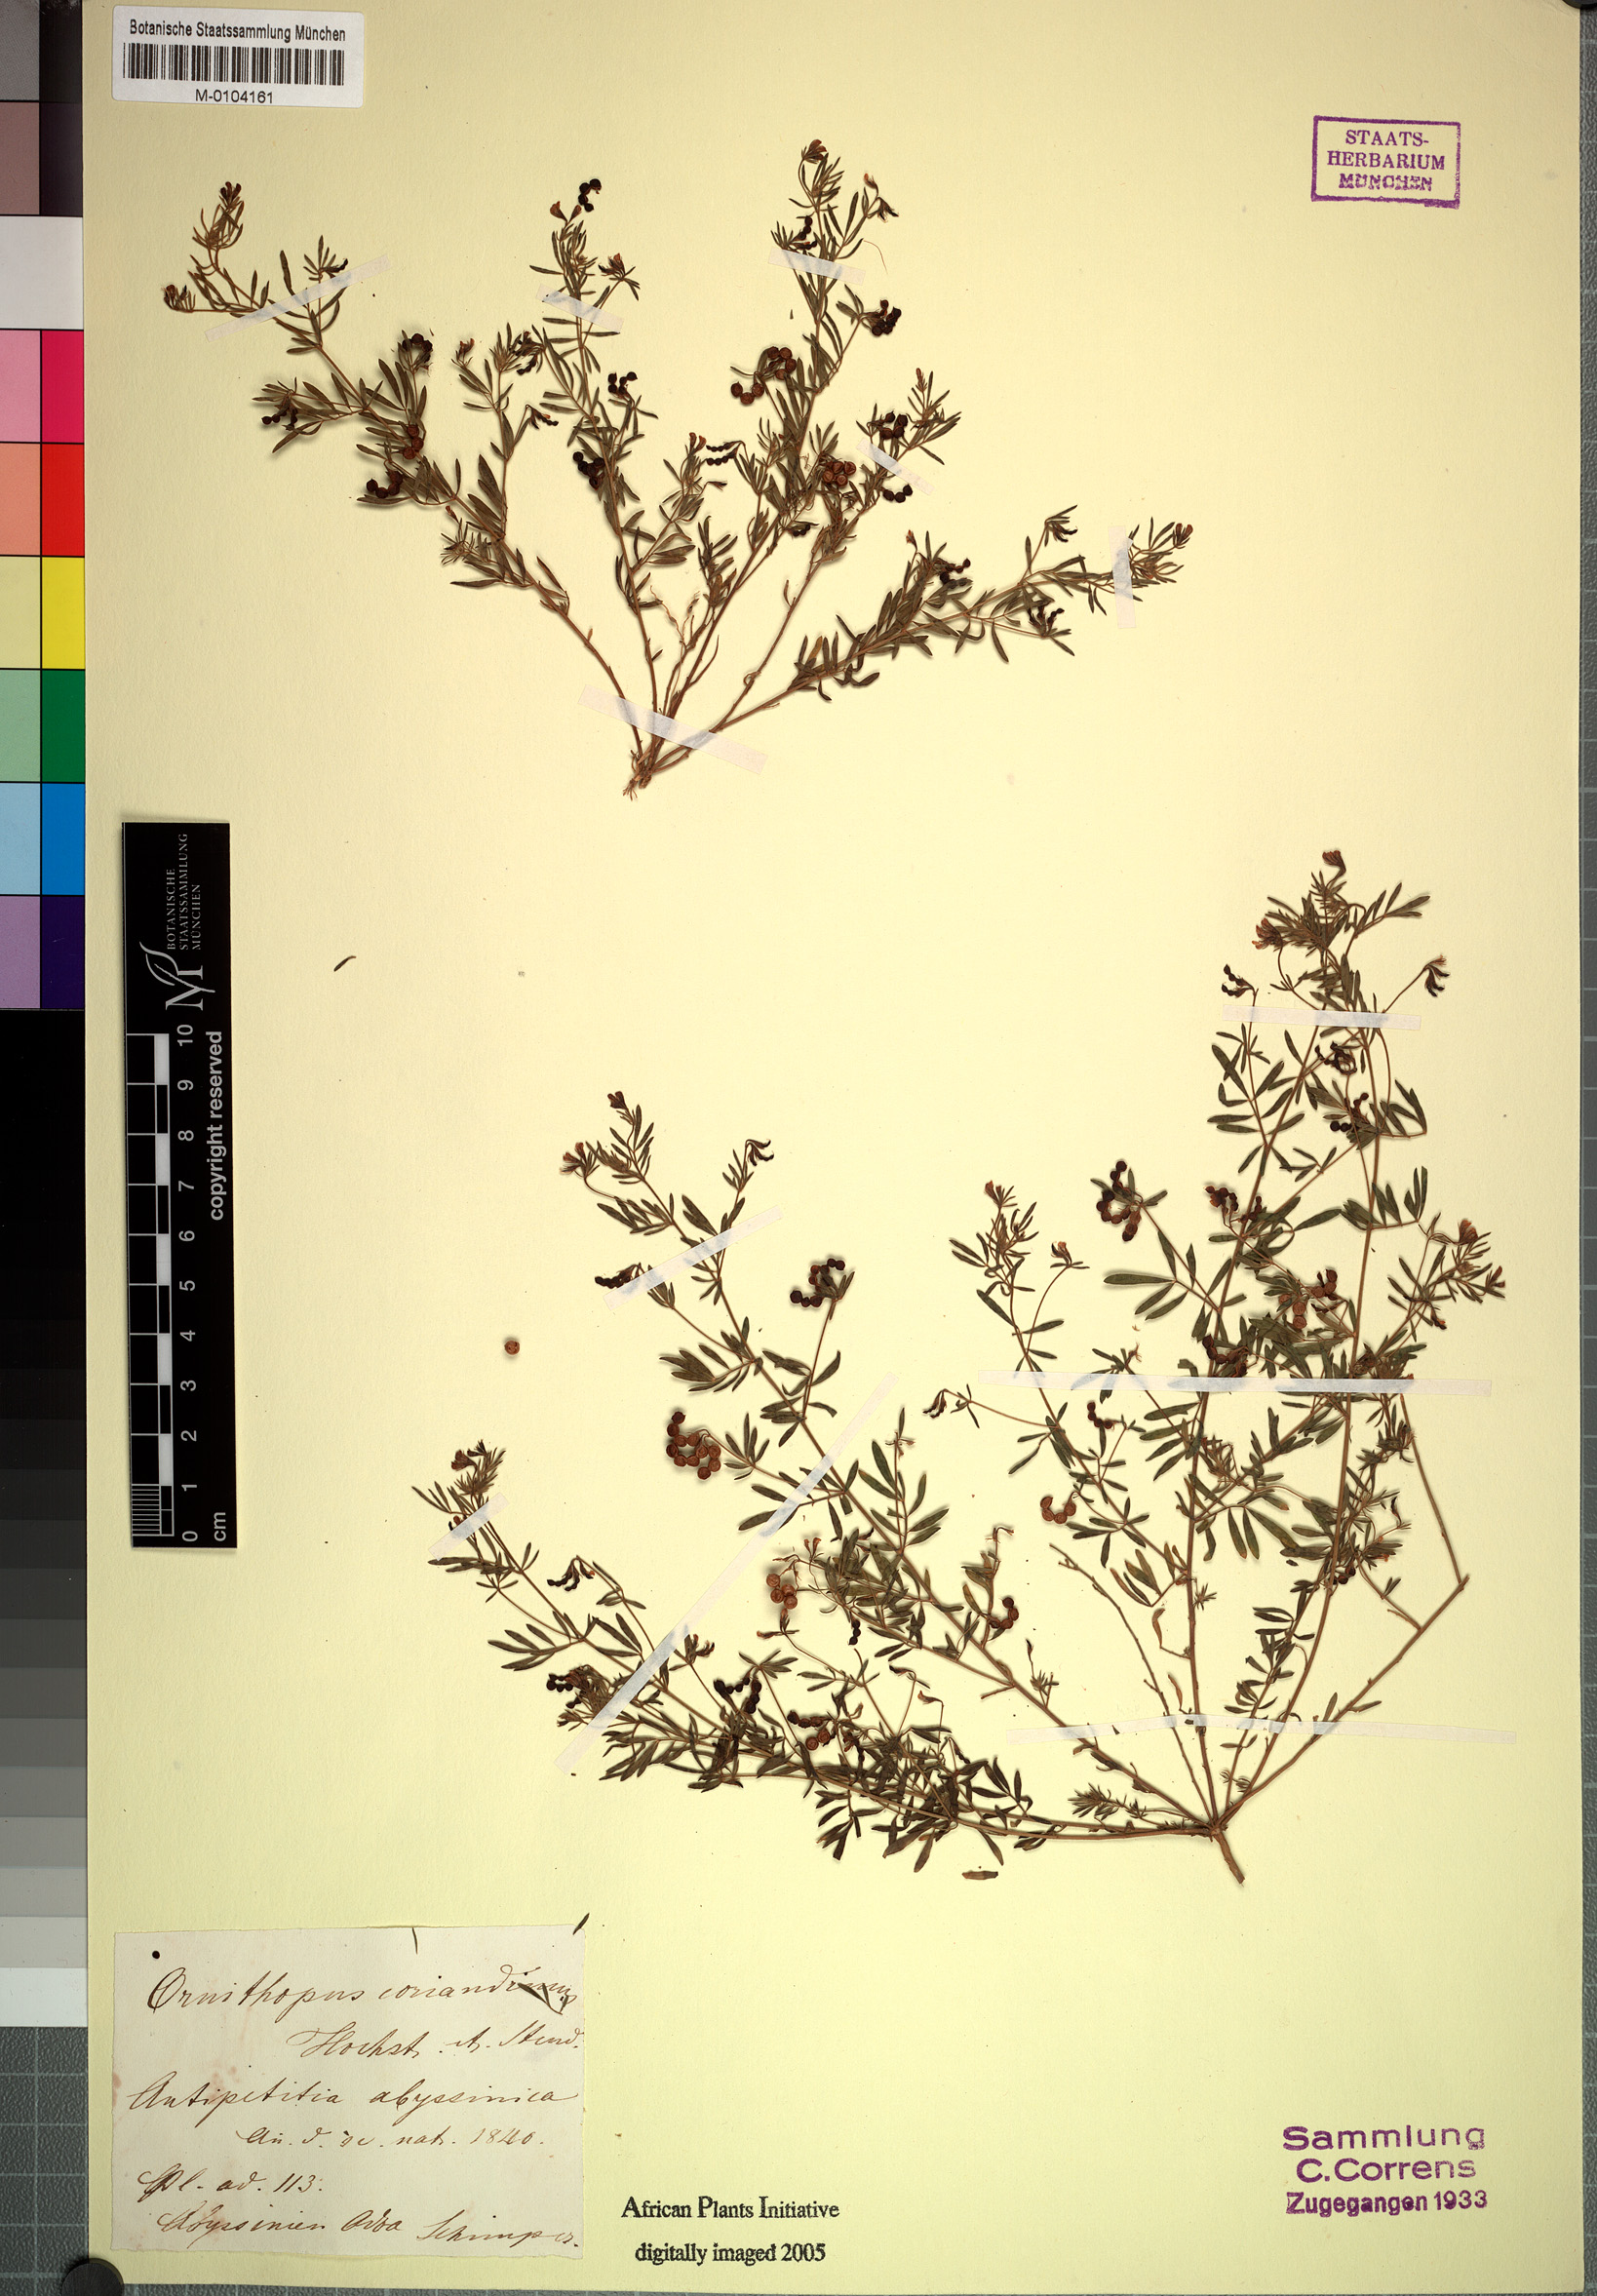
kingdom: Plantae
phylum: Tracheophyta
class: Magnoliopsida
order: Fabales
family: Fabaceae
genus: Antopetitia
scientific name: Antopetitia abyssinica
